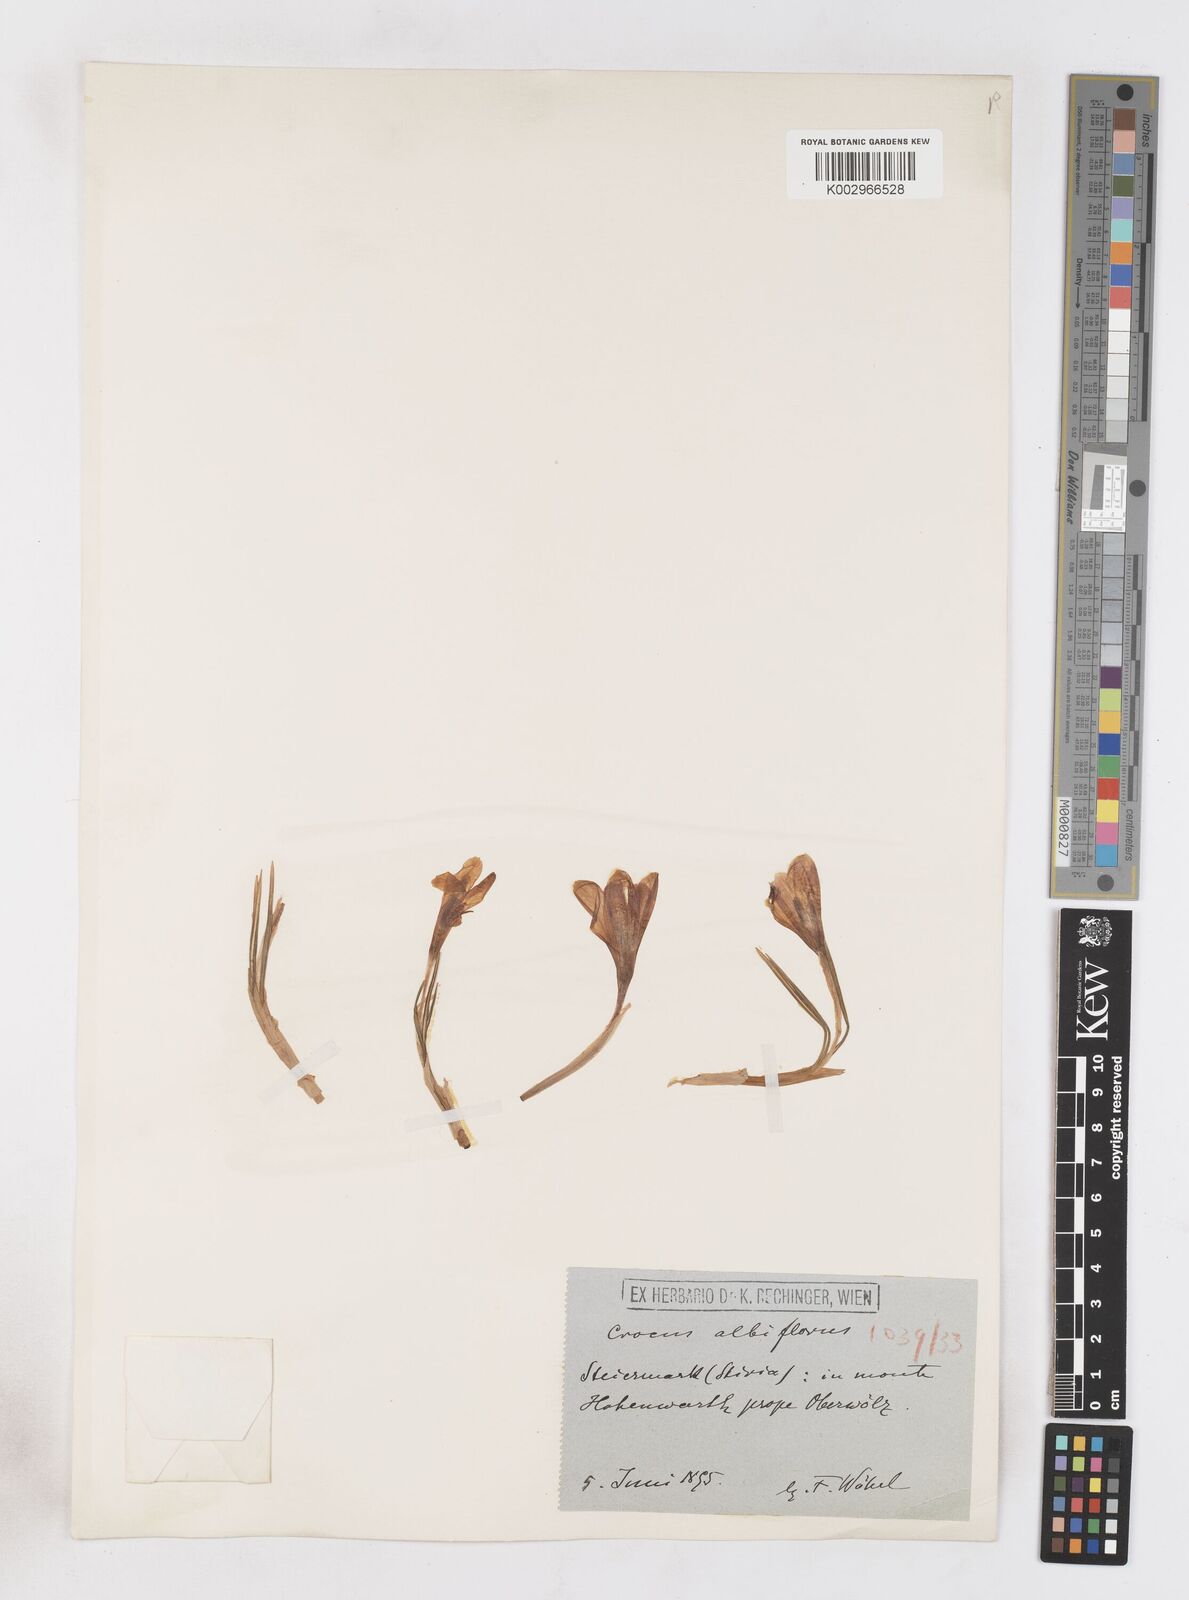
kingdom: Plantae
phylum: Tracheophyta
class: Liliopsida
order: Asparagales
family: Iridaceae
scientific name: Iridaceae
